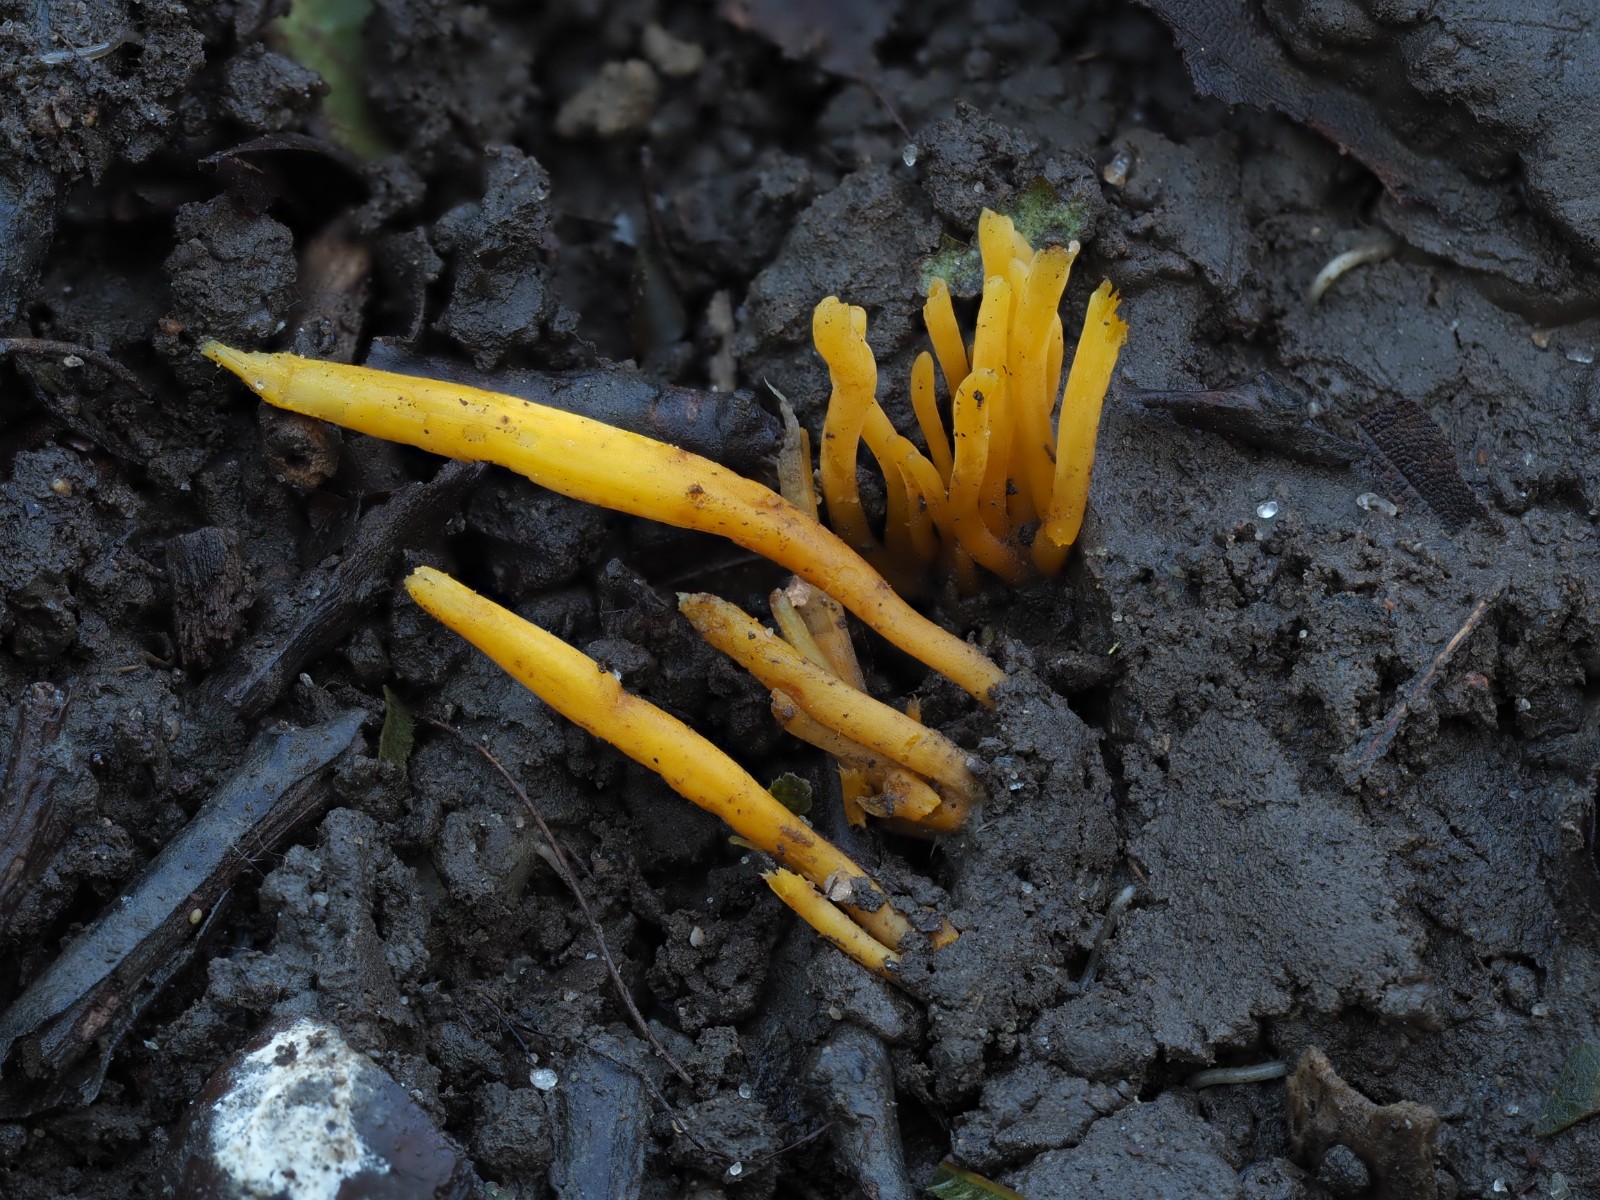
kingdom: Fungi
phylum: Basidiomycota
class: Agaricomycetes
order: Agaricales
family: Clavariaceae
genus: Clavulinopsis
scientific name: Clavulinopsis helvola
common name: orangegul køllesvamp
